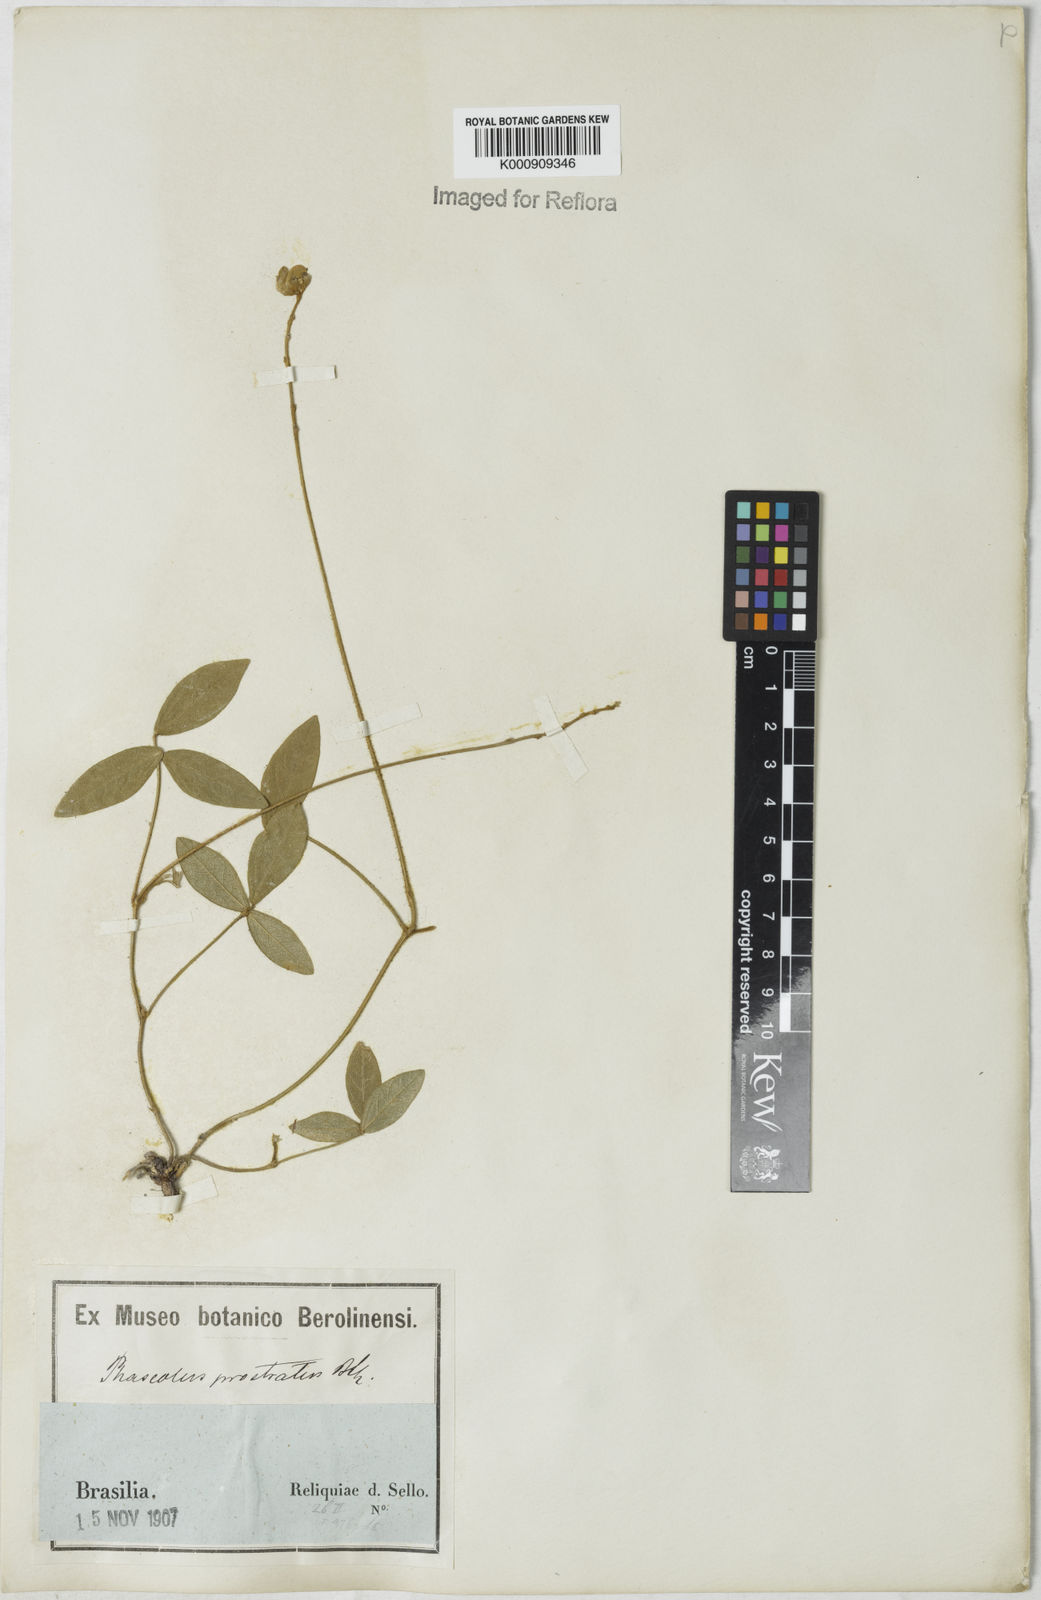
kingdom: Plantae
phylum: Tracheophyta
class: Magnoliopsida
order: Fabales
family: Fabaceae
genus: Macroptilium
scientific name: Macroptilium prostratum
